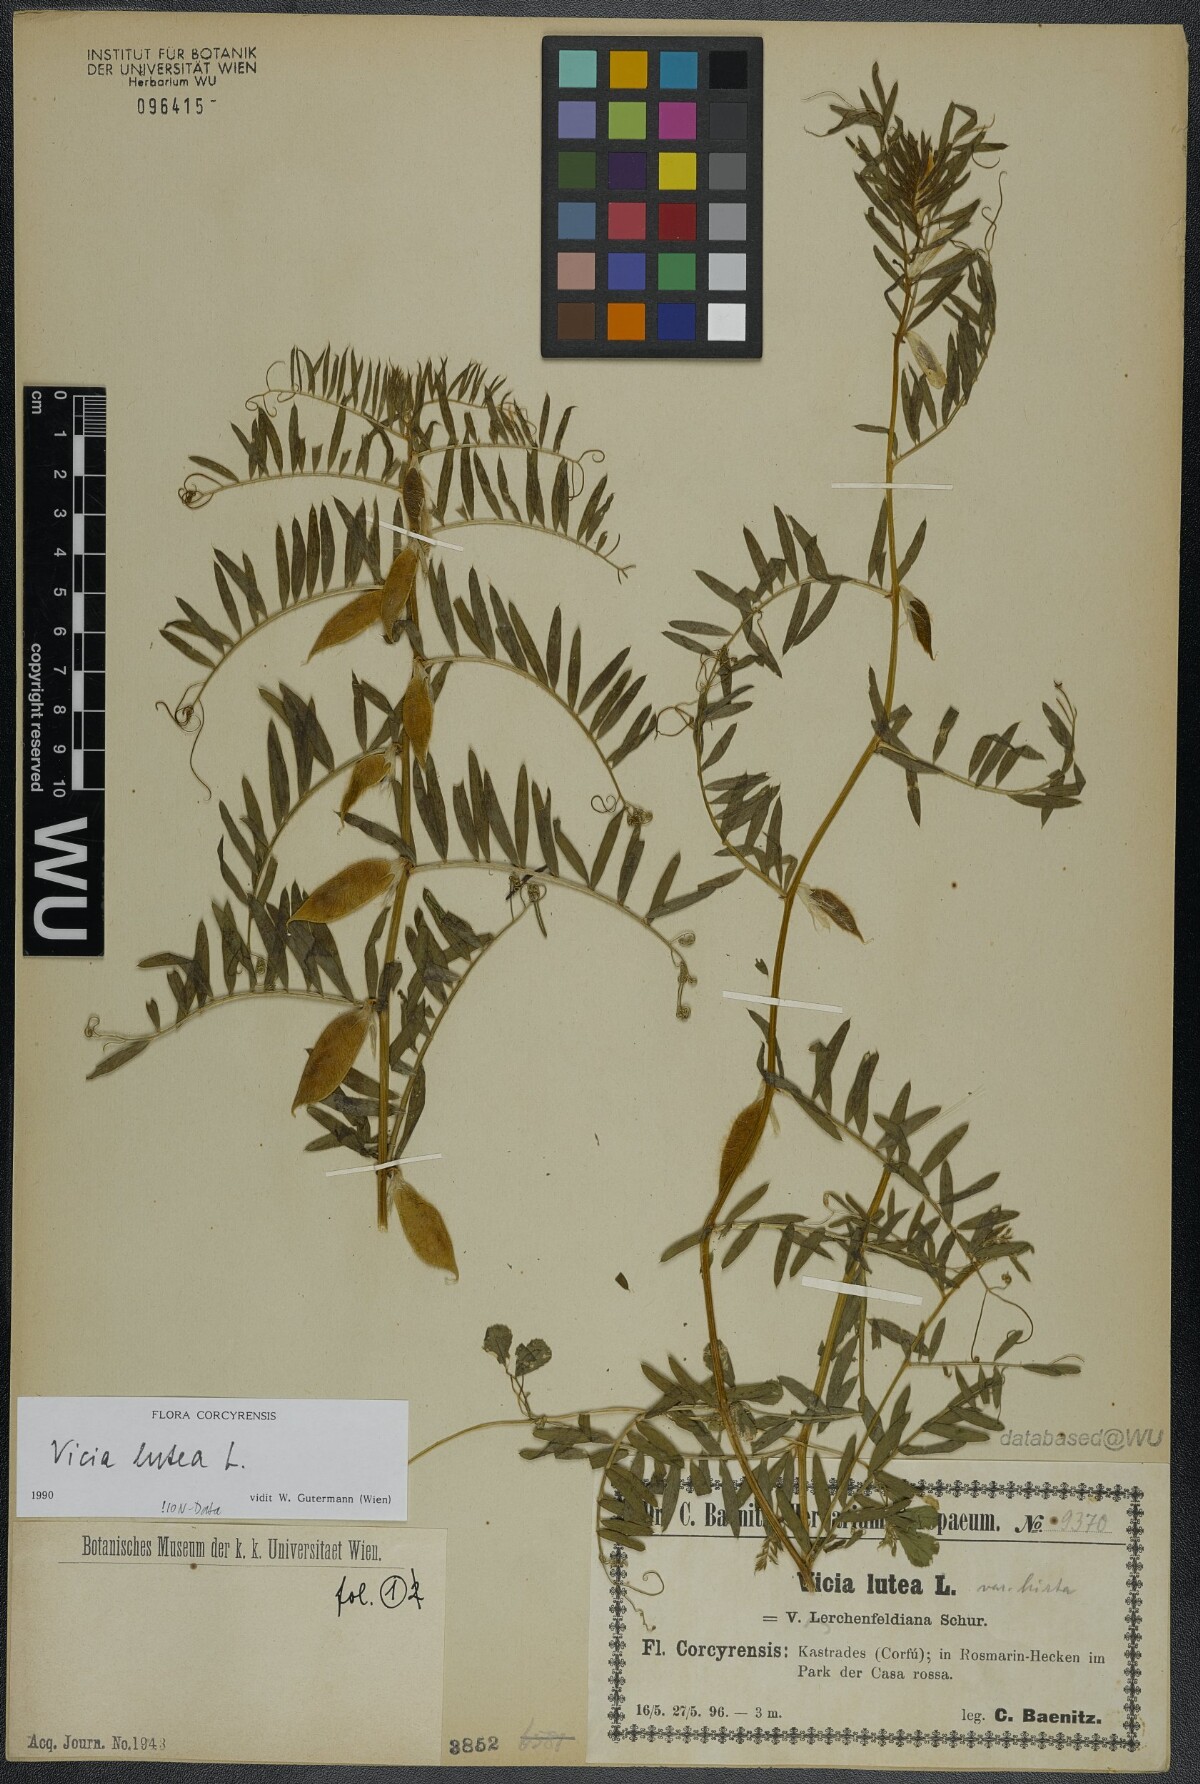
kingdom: Plantae
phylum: Tracheophyta
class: Magnoliopsida
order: Fabales
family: Fabaceae
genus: Vicia
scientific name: Vicia lutea
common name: Smooth yellow vetch
